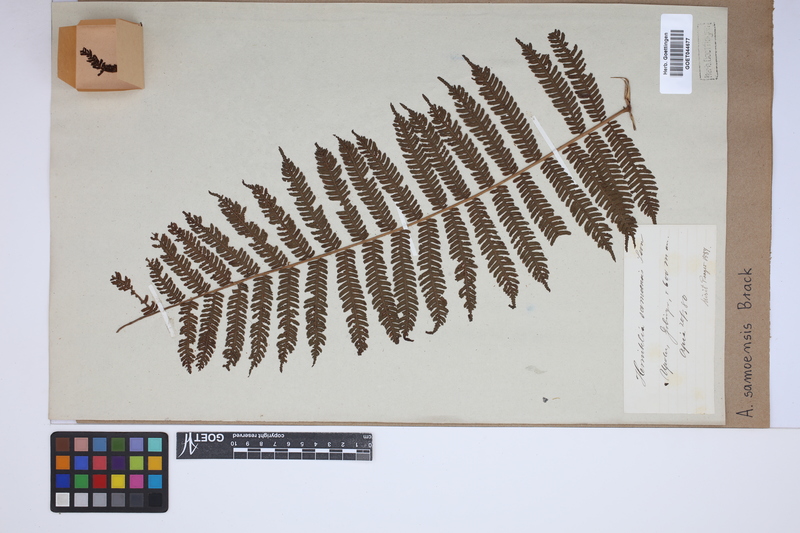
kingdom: Plantae
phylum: Tracheophyta
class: Polypodiopsida
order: Cyatheales
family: Cyatheaceae
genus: Sphaeropteris
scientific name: Sphaeropteris samoensis
